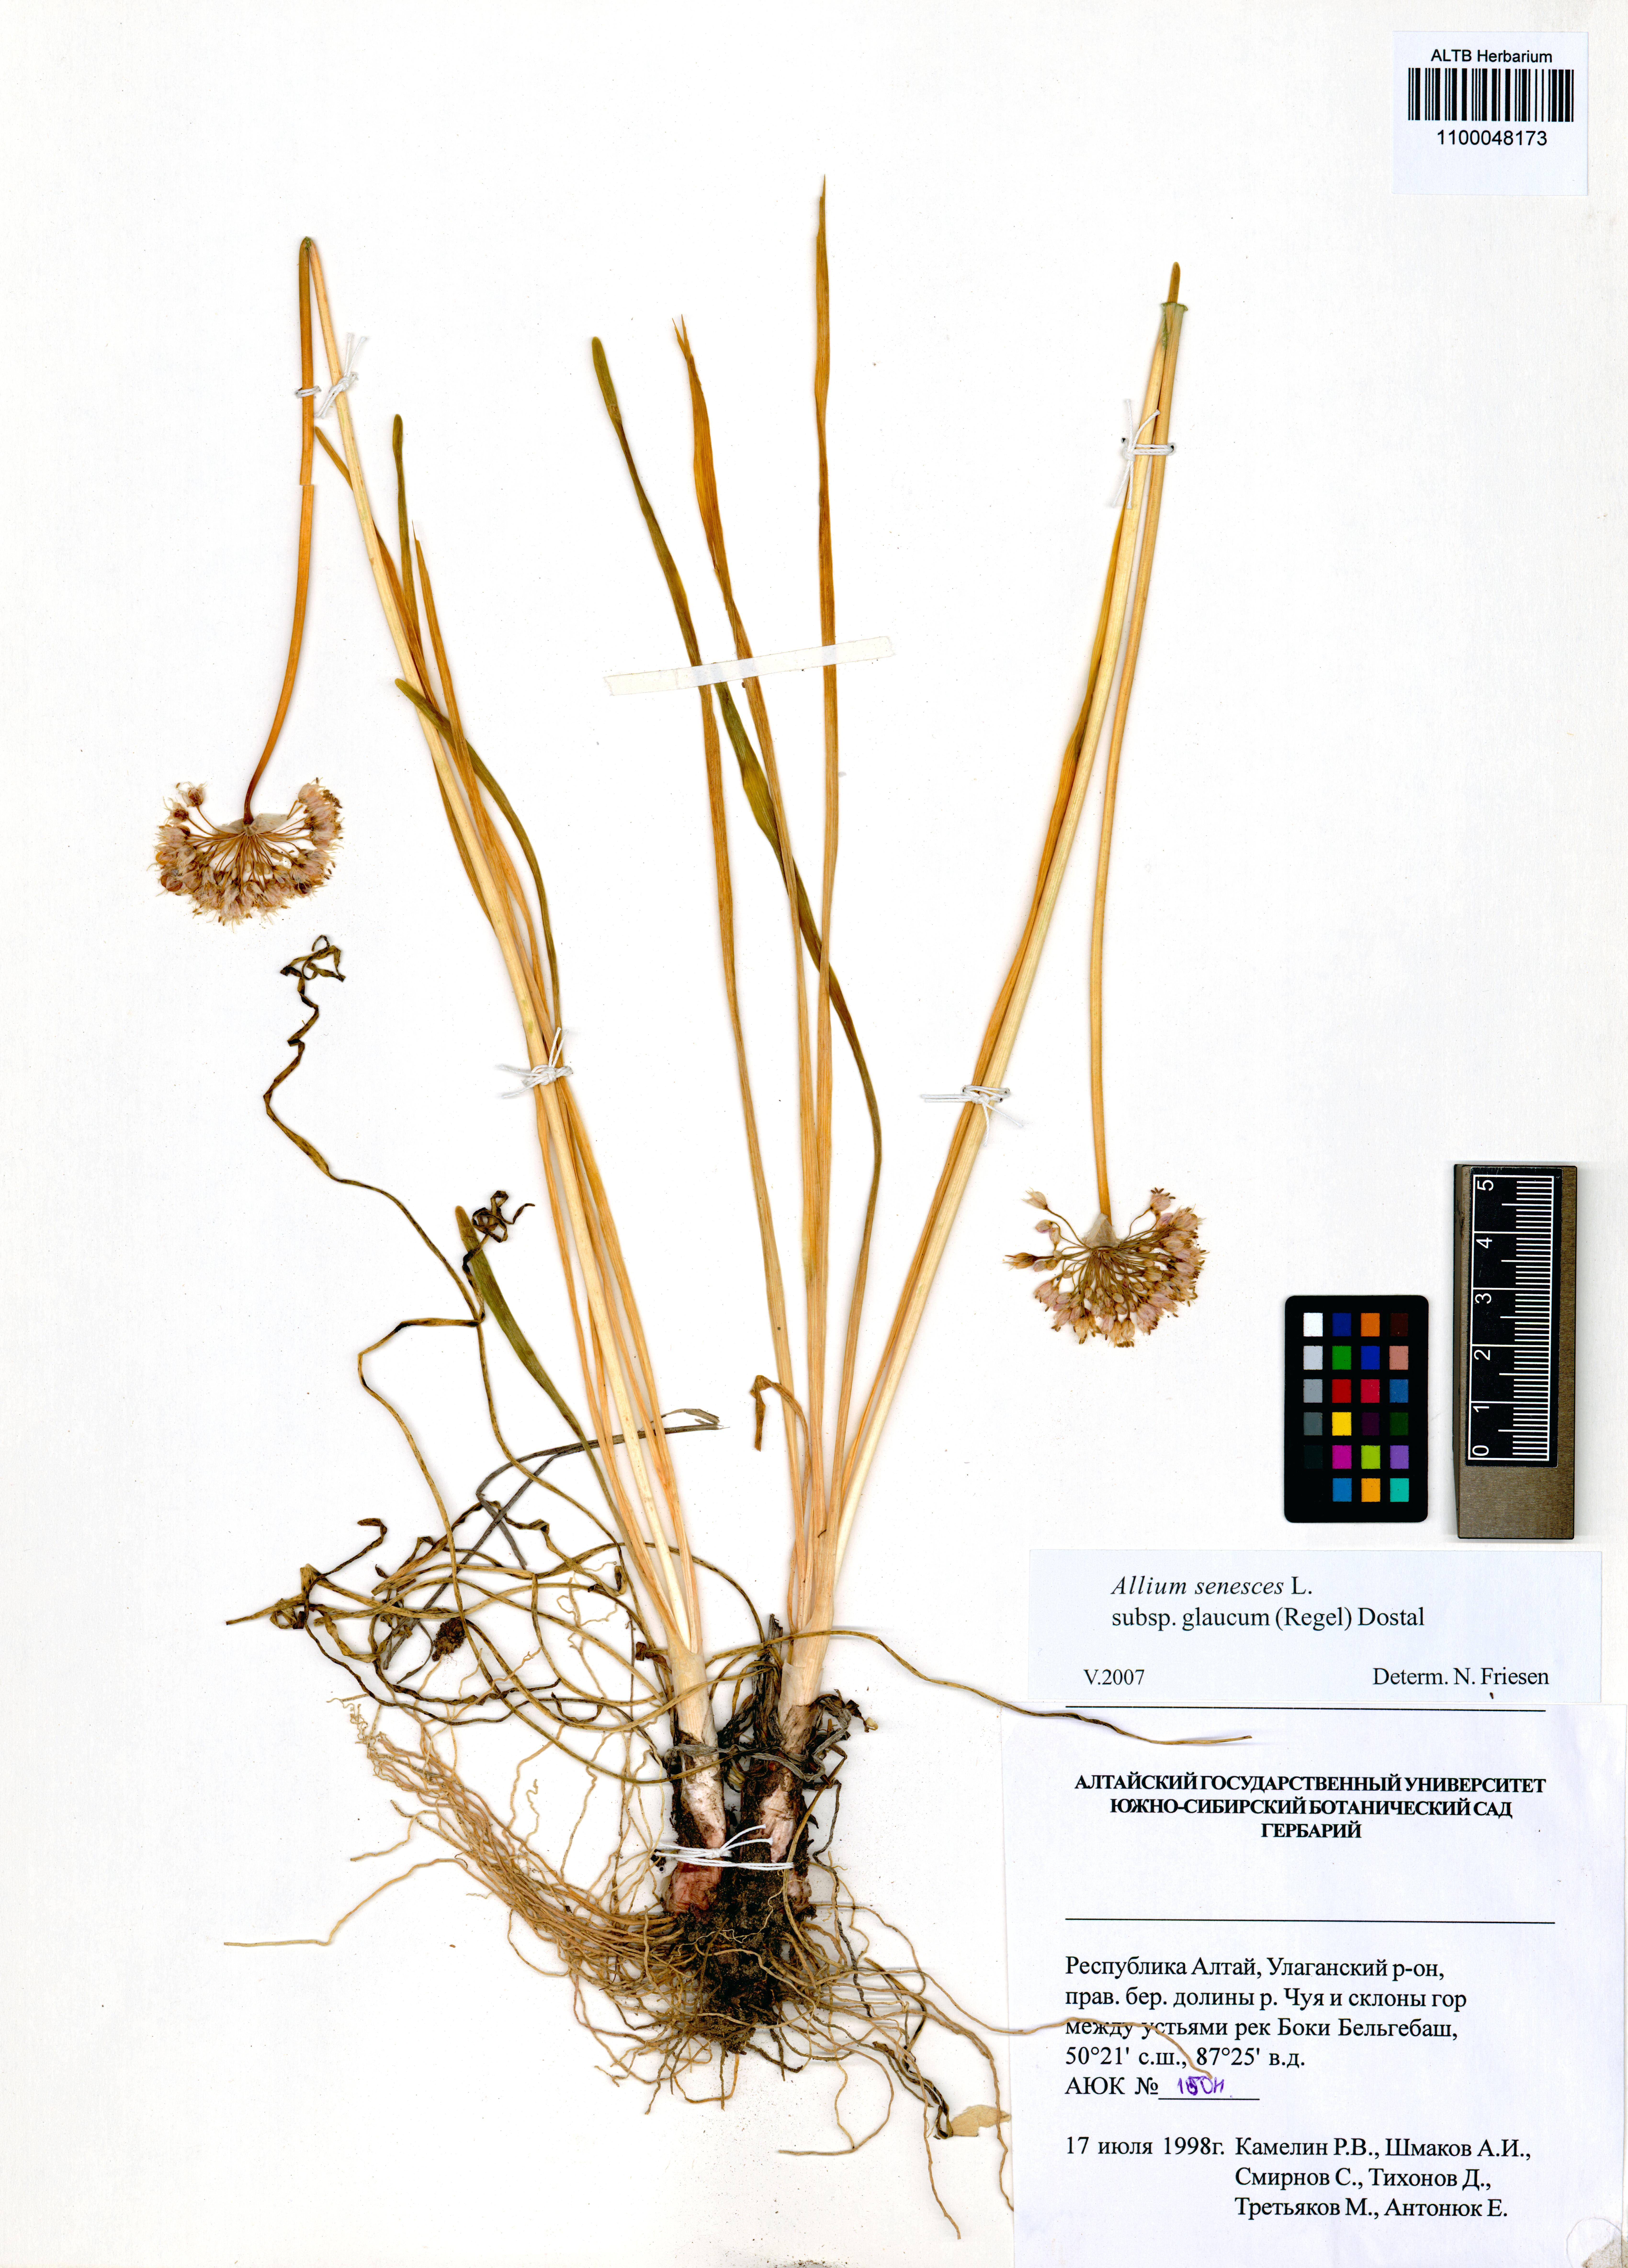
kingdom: Plantae
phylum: Tracheophyta
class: Liliopsida
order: Asparagales
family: Amaryllidaceae
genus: Allium
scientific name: Allium senescens
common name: German garlic
